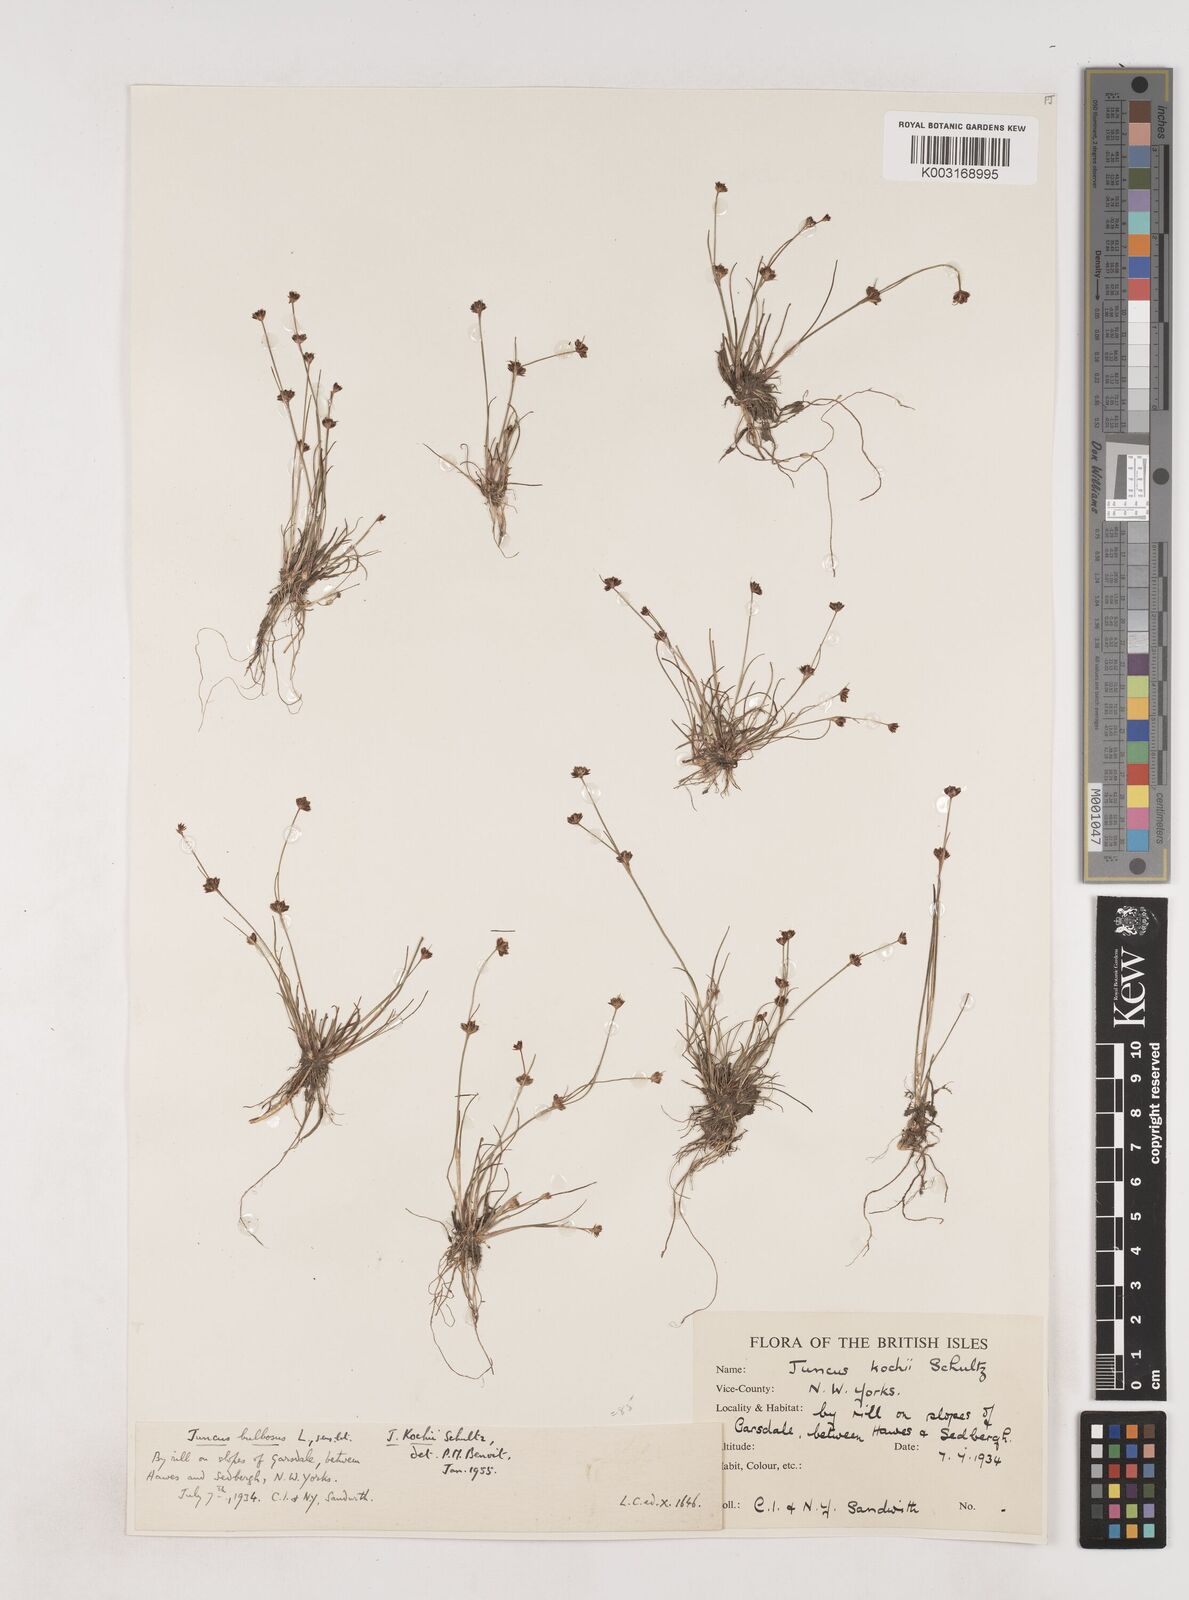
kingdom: Plantae
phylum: Tracheophyta
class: Liliopsida
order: Poales
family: Juncaceae
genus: Juncus
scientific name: Juncus bulbosus
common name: Bulbous rush
